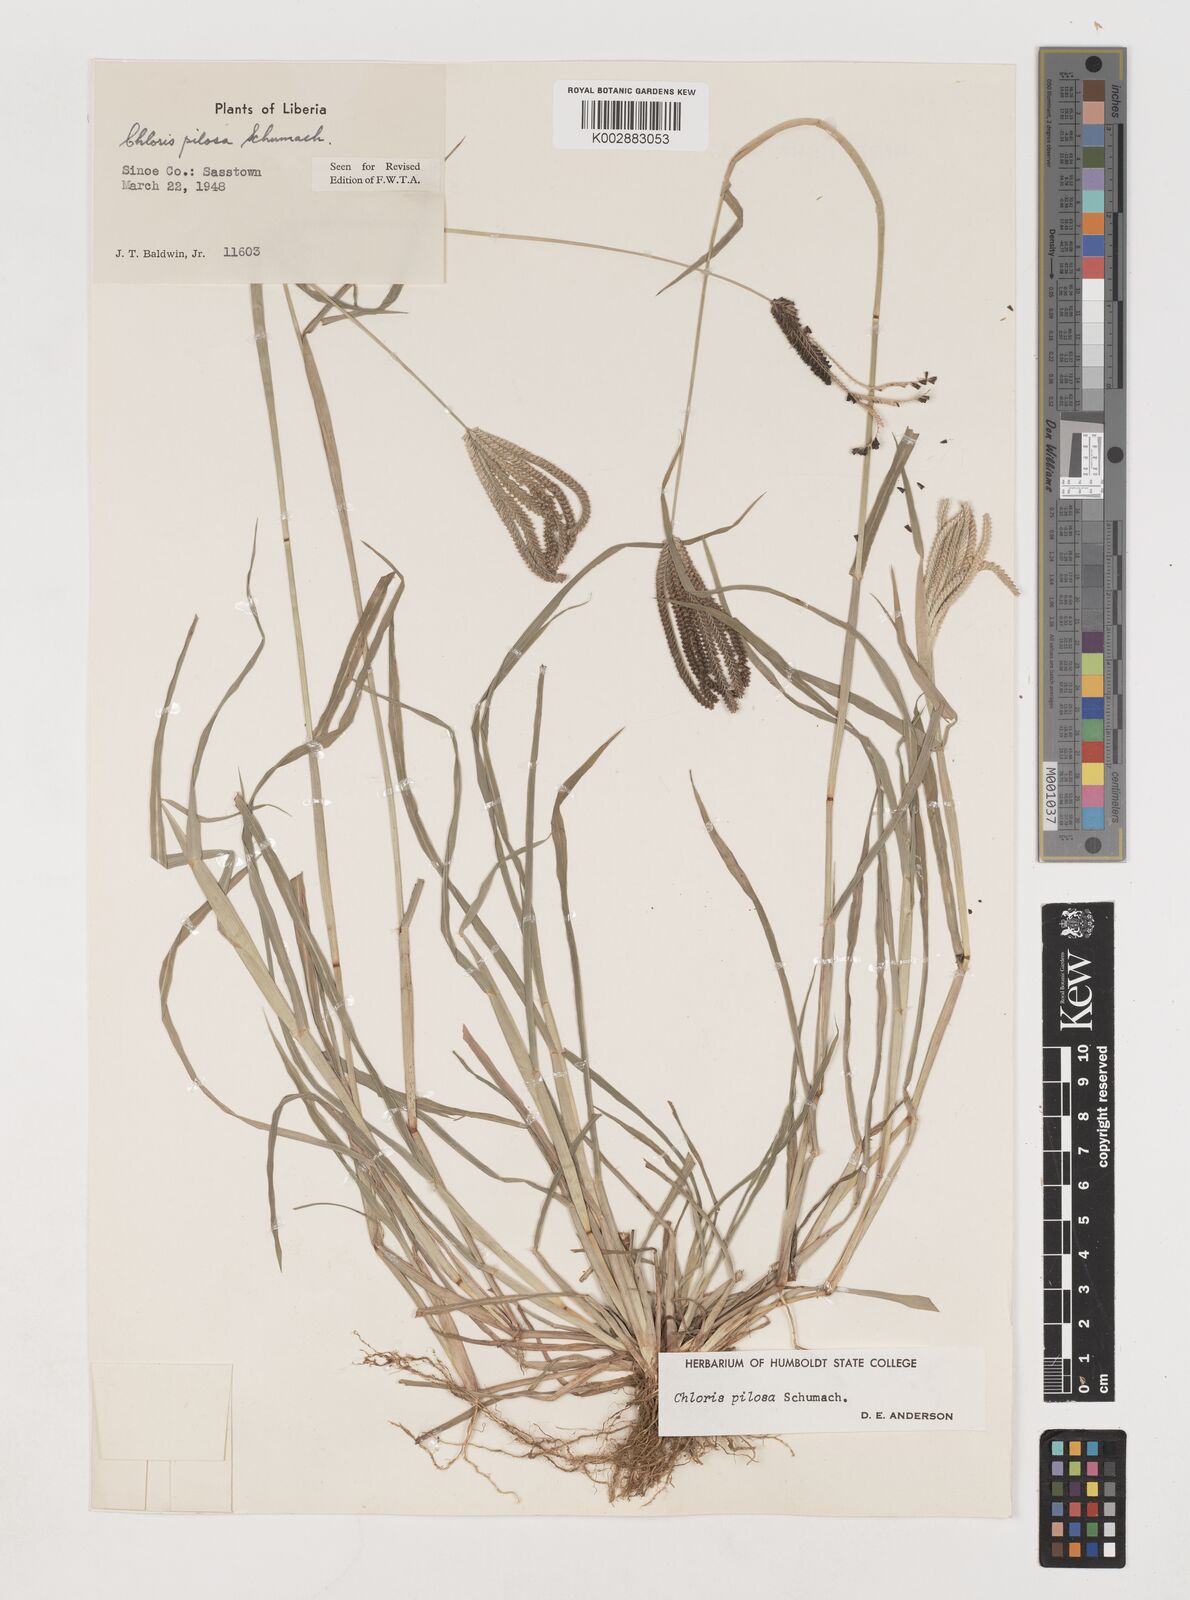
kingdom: Plantae
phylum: Tracheophyta
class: Liliopsida
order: Poales
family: Poaceae
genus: Chloris
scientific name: Chloris pilosa
